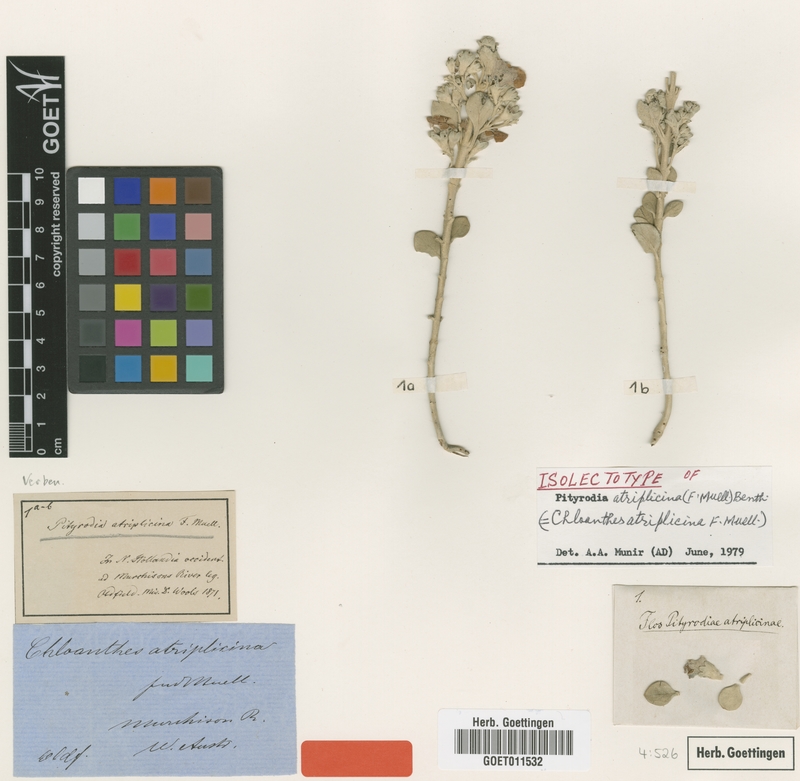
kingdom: Plantae
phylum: Tracheophyta
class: Magnoliopsida
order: Lamiales
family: Lamiaceae
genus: Quoya
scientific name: Quoya atriplicina
